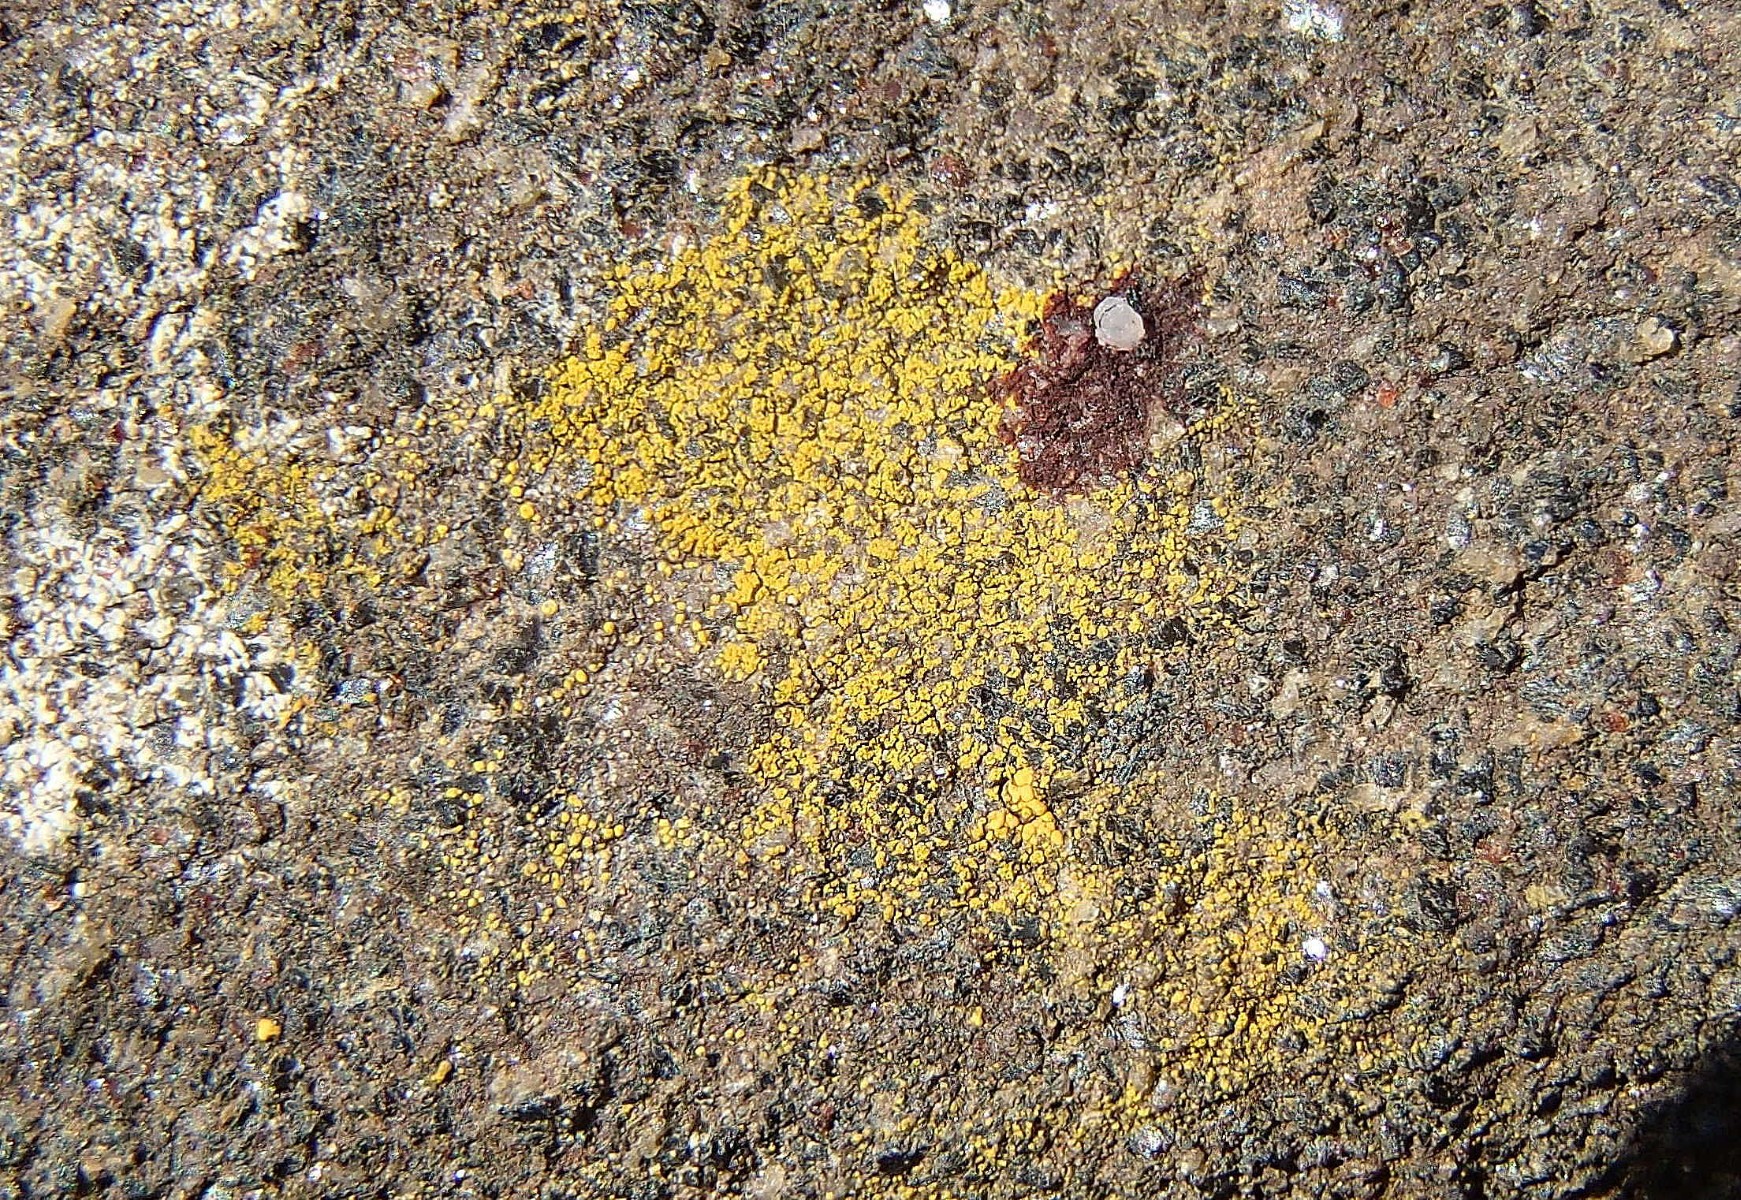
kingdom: Fungi
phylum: Ascomycota
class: Lecanoromycetes
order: Teloschistales
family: Teloschistaceae
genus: Flavoplaca
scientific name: Flavoplaca citrina
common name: støvet orangelav
